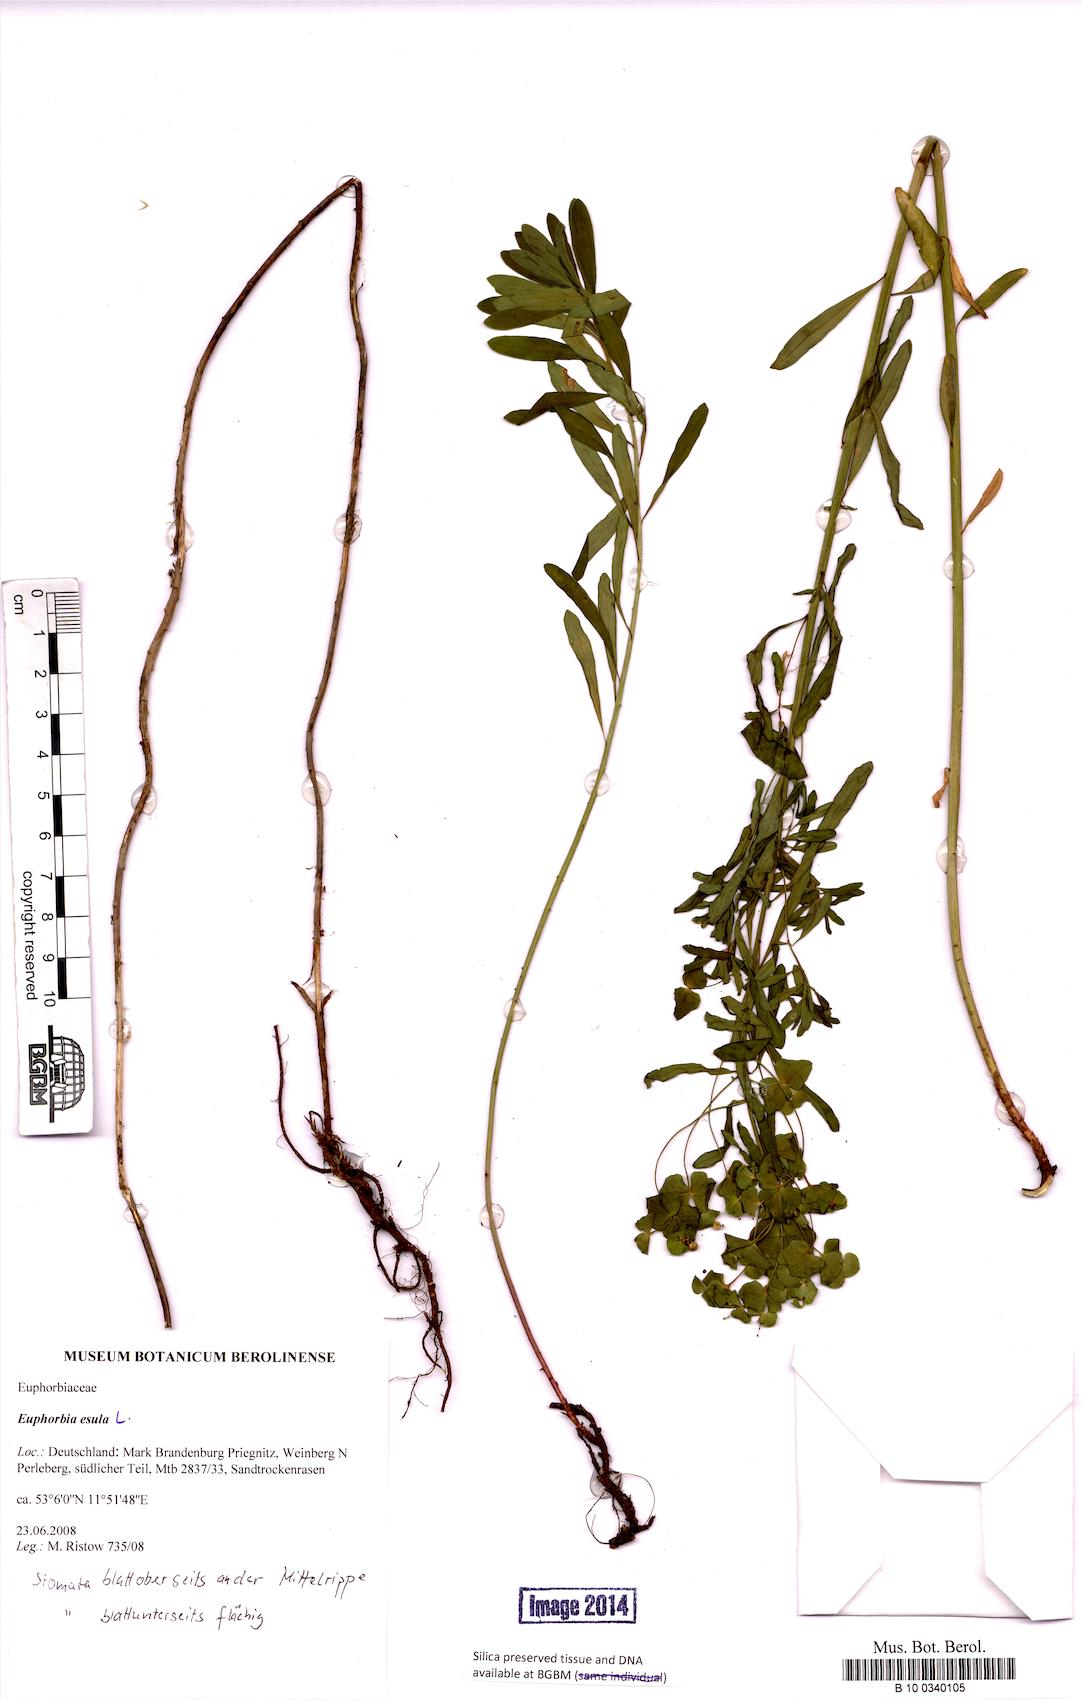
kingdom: Plantae
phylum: Tracheophyta
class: Magnoliopsida
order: Malpighiales
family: Euphorbiaceae
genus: Euphorbia
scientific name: Euphorbia esula
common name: Leafy spurge
